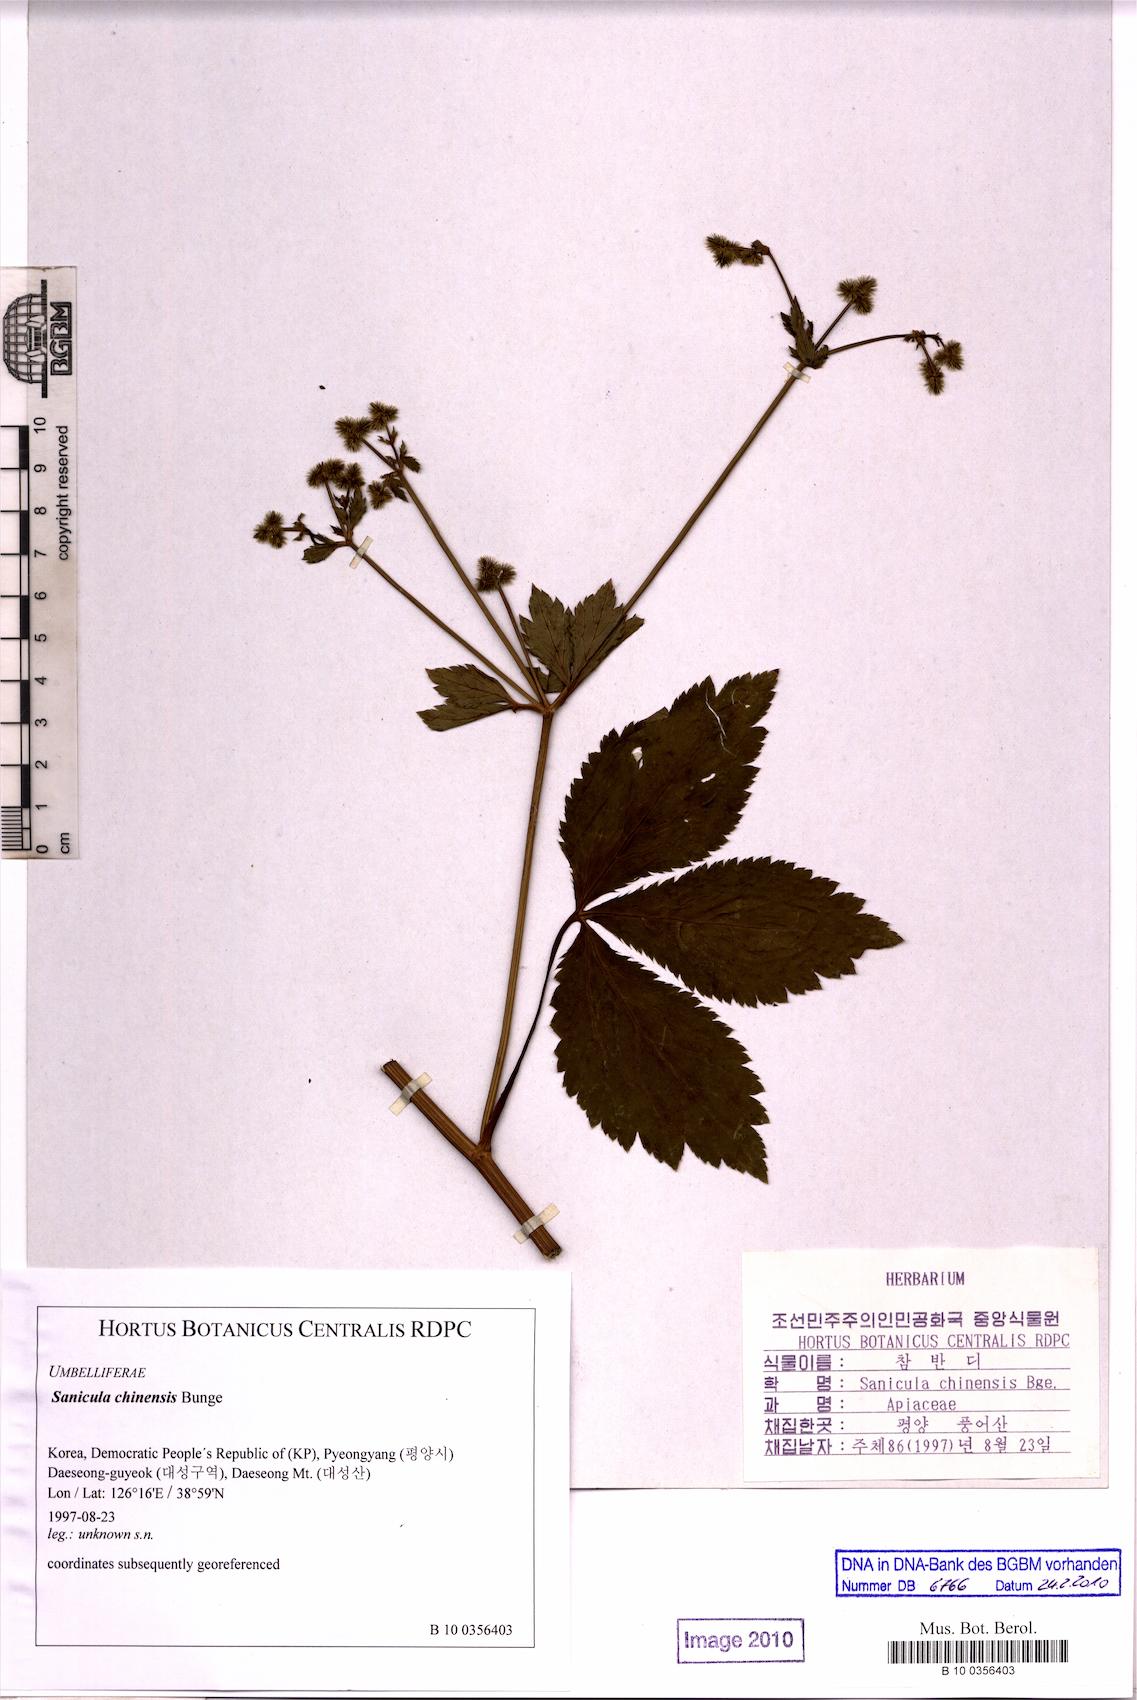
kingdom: Plantae
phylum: Tracheophyta
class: Magnoliopsida
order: Apiales
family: Apiaceae
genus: Sanicula
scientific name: Sanicula chinensis
